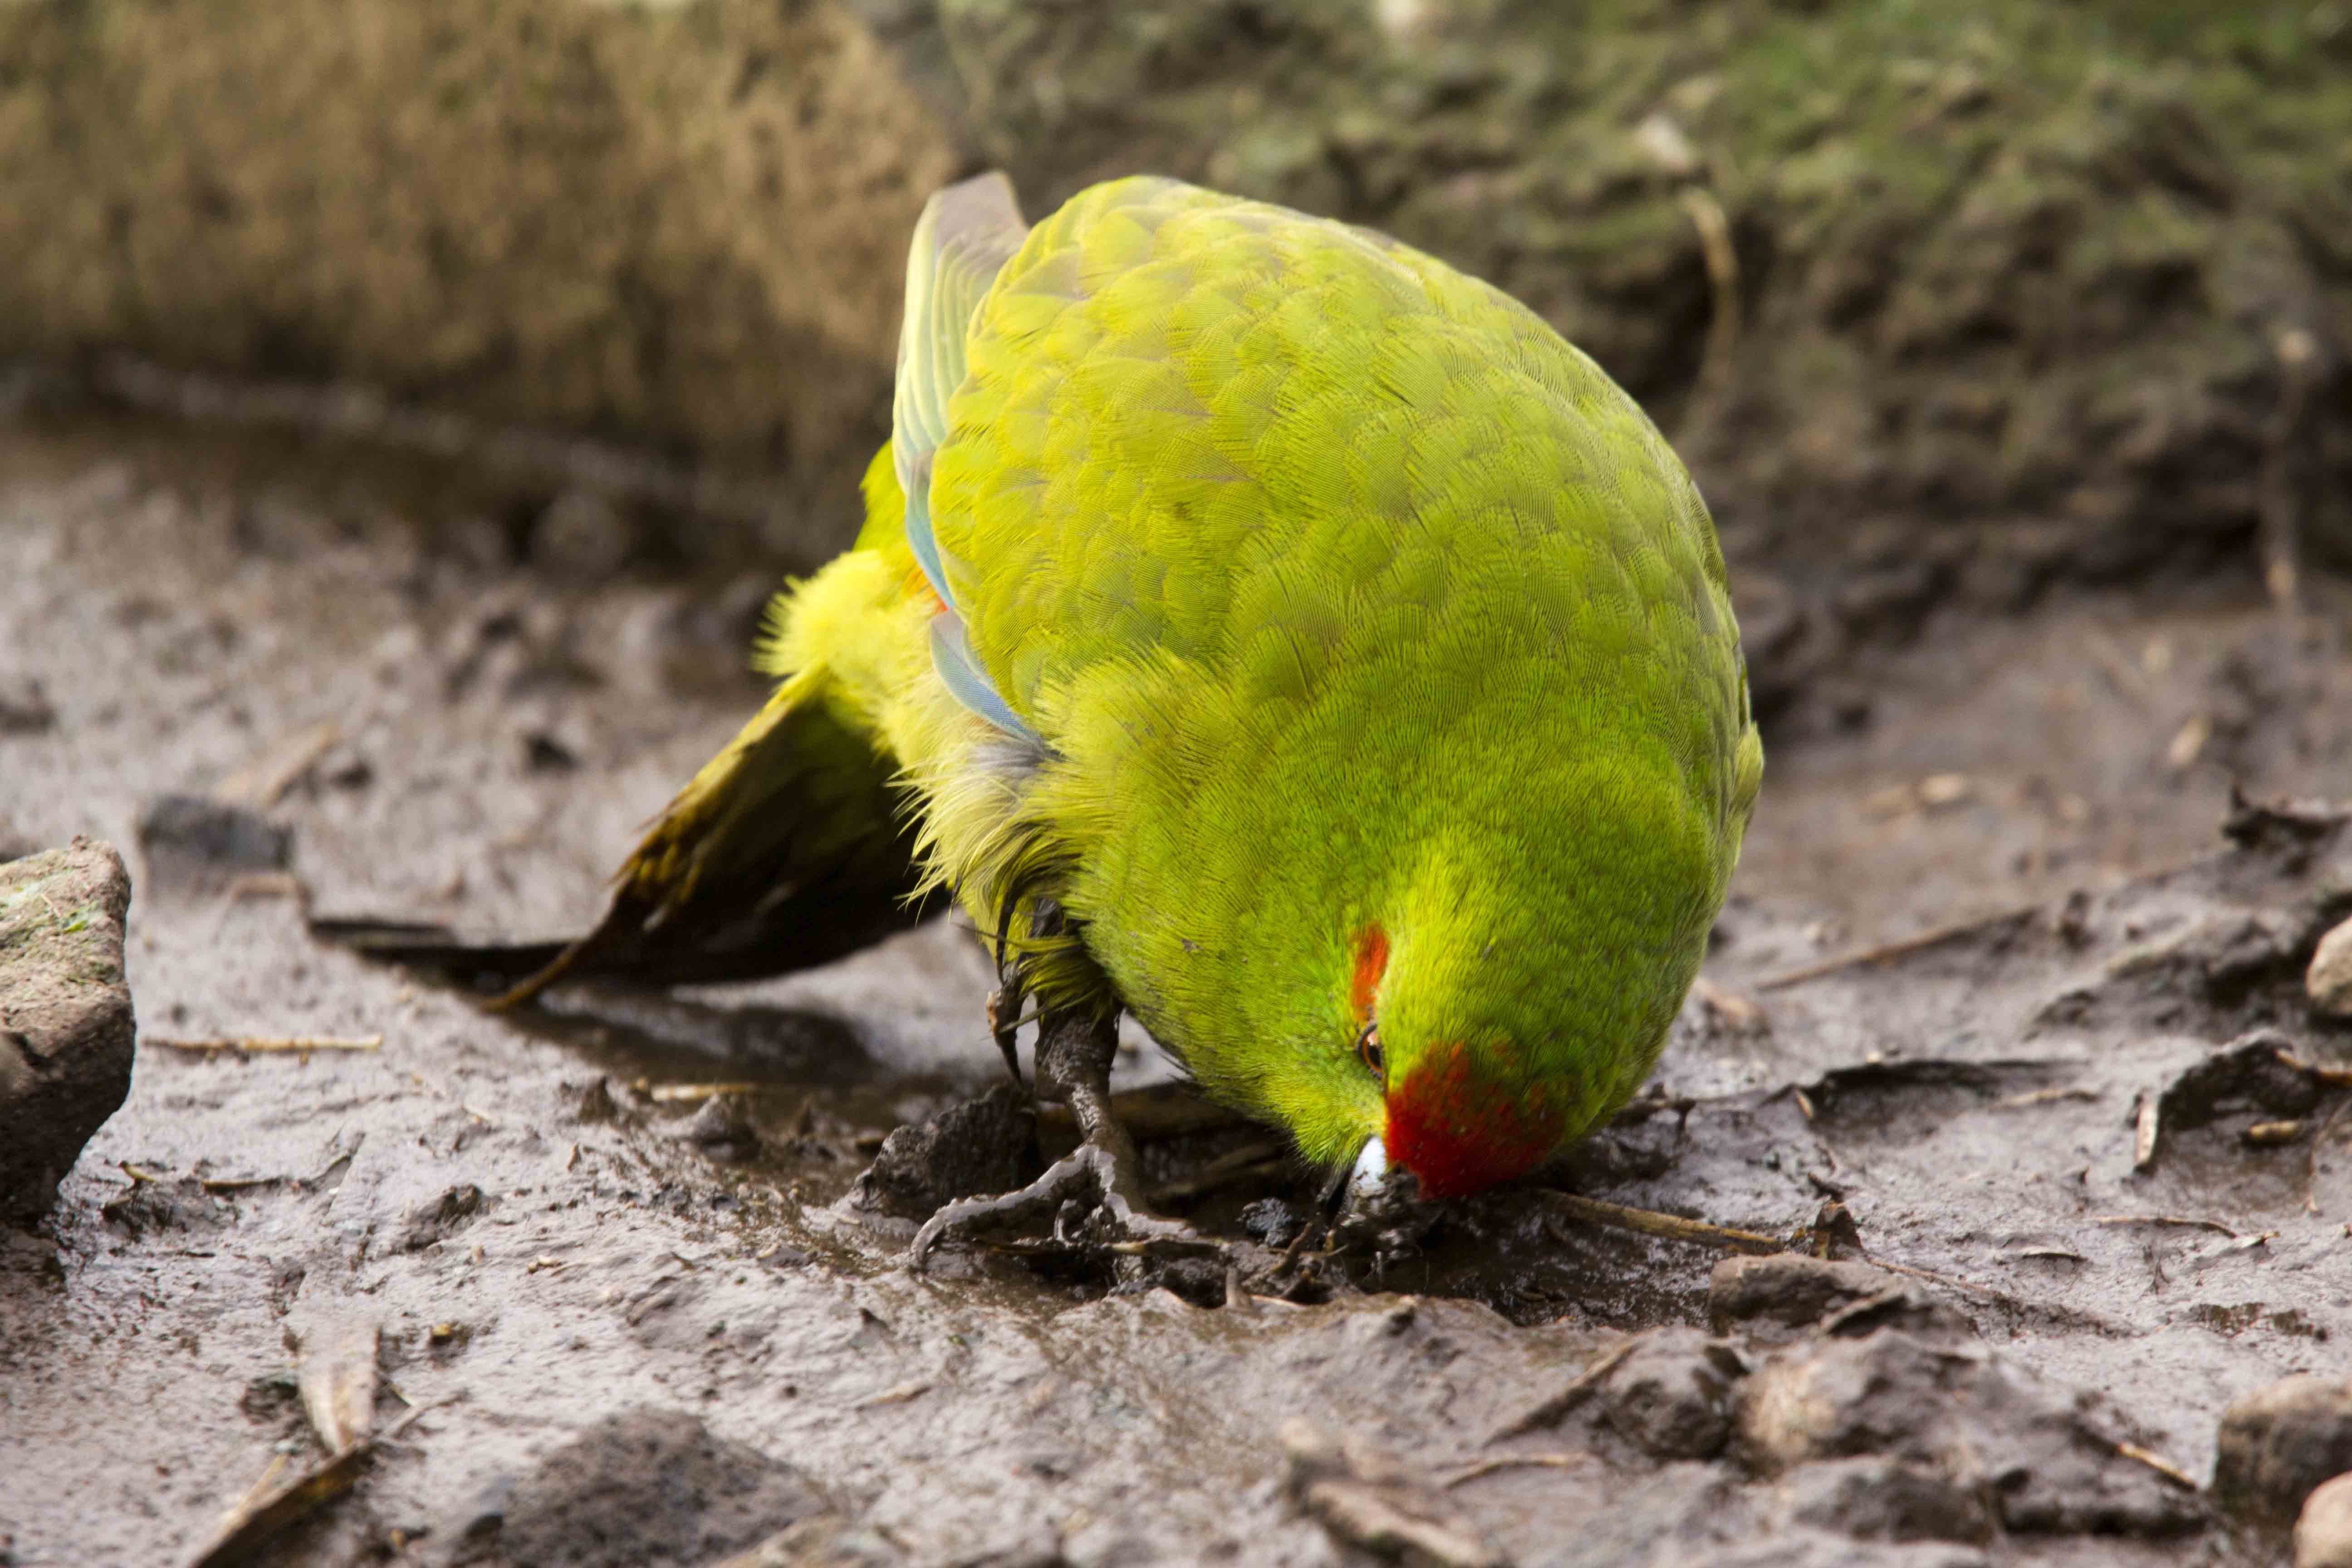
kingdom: Animalia
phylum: Chordata
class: Aves
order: Psittaciformes
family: Psittacidae
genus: Cyanoramphus
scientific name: Cyanoramphus novaezelandiae
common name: Red-fronted parakeet
